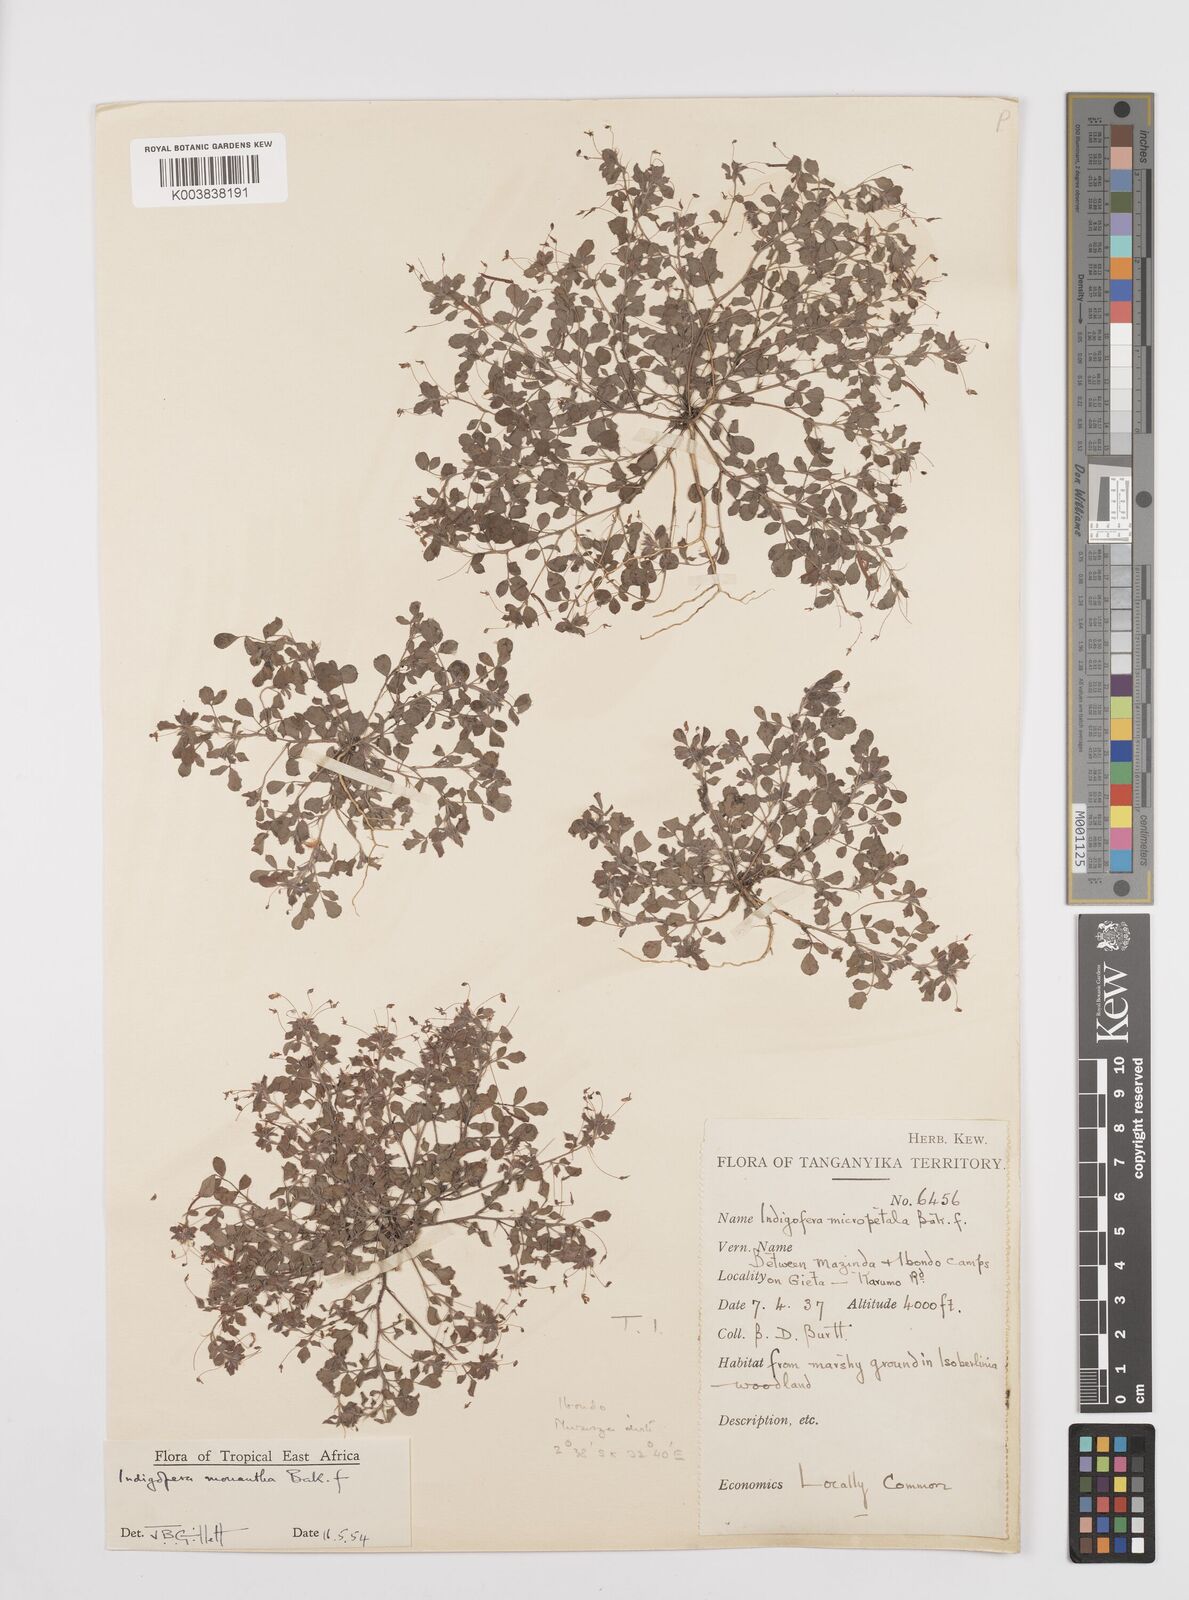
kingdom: Plantae
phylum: Tracheophyta
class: Magnoliopsida
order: Fabales
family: Fabaceae
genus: Indigofera
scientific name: Indigofera monantha
